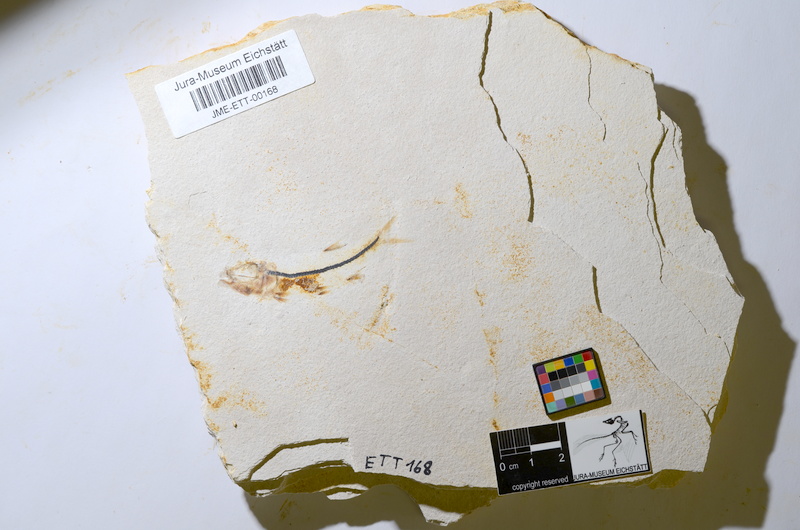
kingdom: Animalia
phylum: Chordata
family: Ascalaboidae
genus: Ebertichthys
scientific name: Ebertichthys ettlingensis
